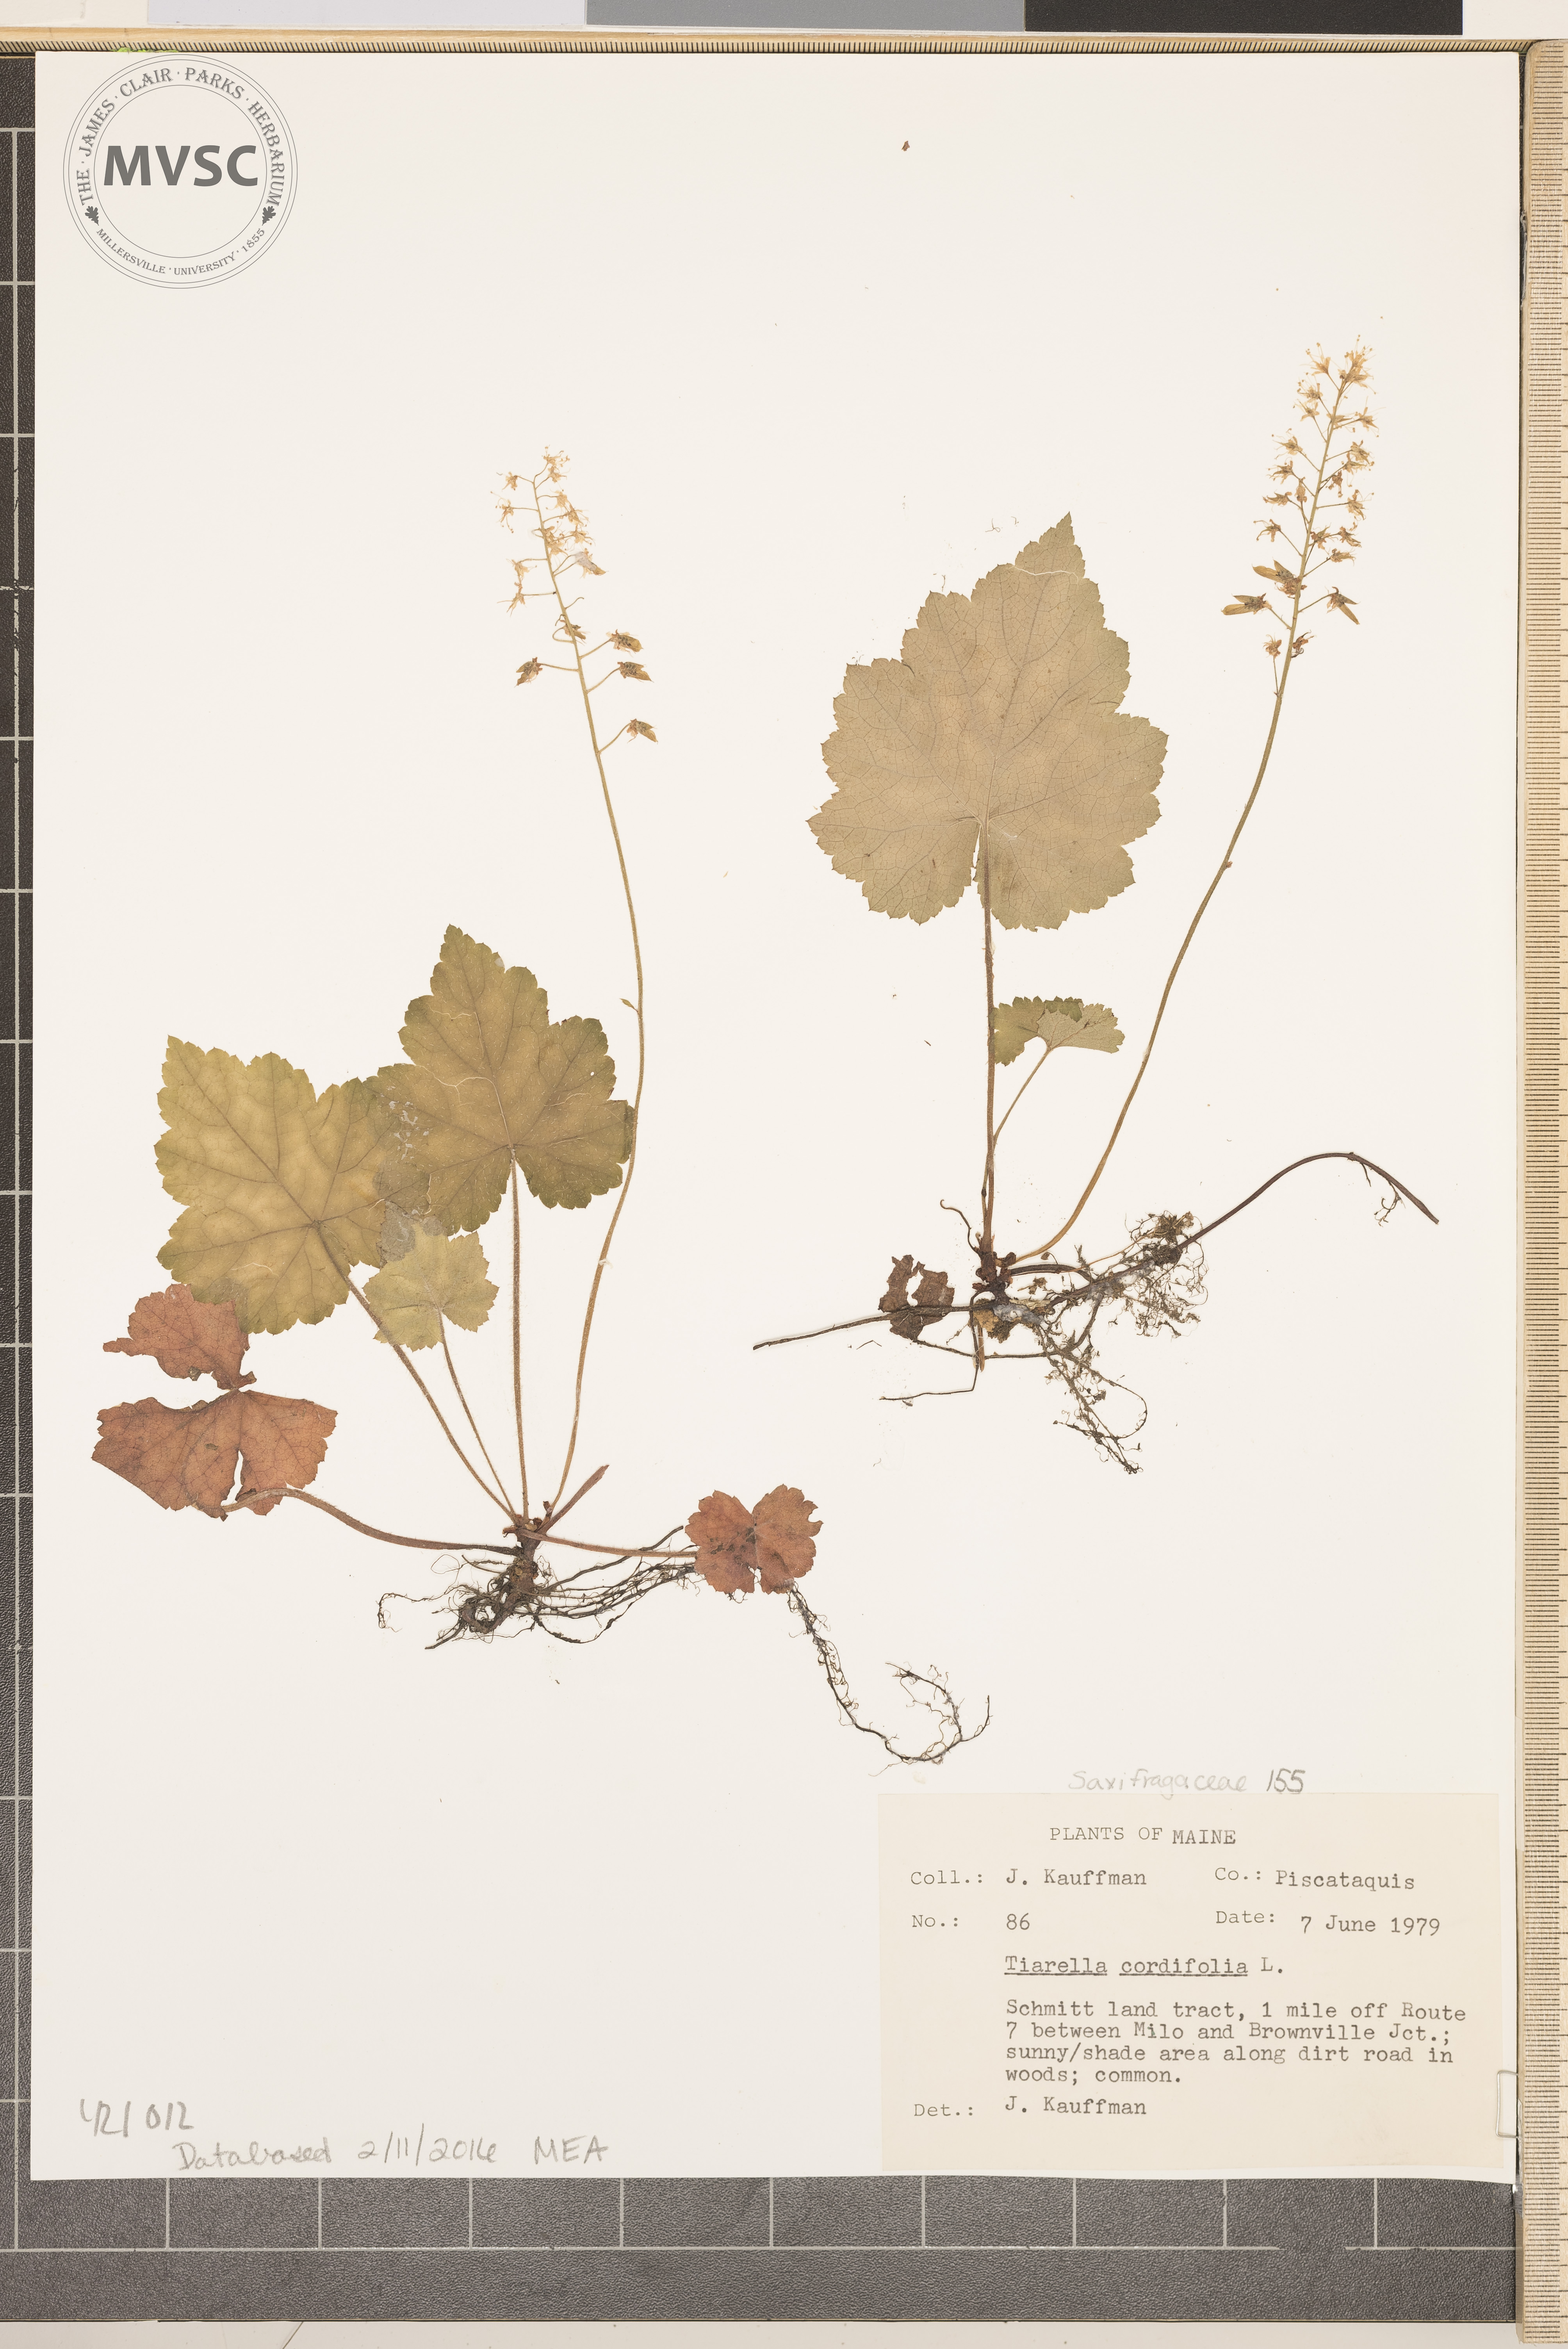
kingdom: Plantae
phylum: Tracheophyta
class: Magnoliopsida
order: Saxifragales
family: Saxifragaceae
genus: Tiarella
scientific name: Tiarella cordifolia
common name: Foamflower
